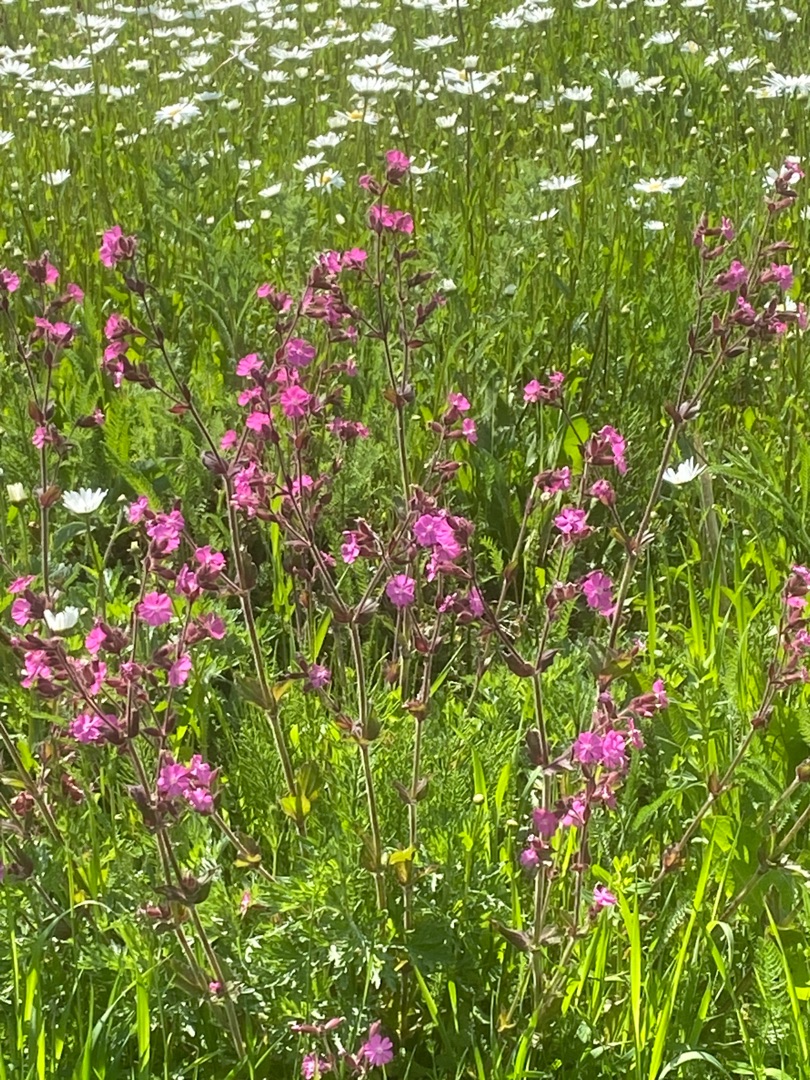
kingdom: Plantae
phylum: Tracheophyta
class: Magnoliopsida
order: Caryophyllales
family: Caryophyllaceae
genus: Silene
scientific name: Silene dioica
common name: Dagpragtstjerne
